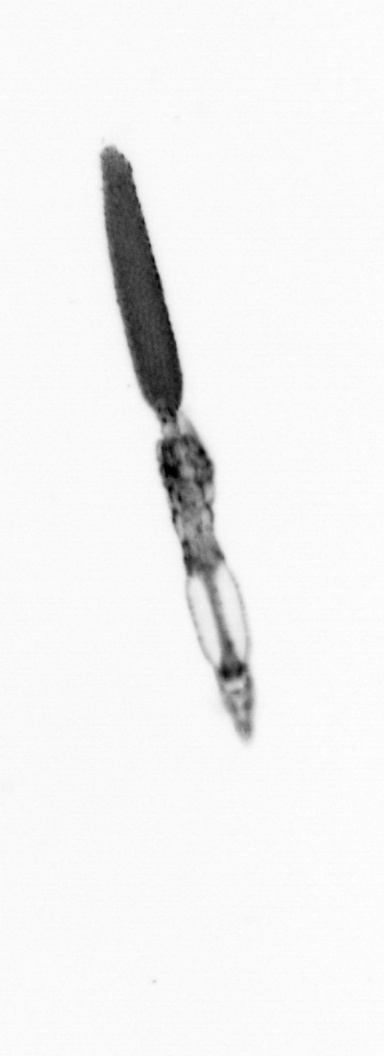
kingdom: Animalia
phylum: Arthropoda
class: Copepoda
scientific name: Copepoda
